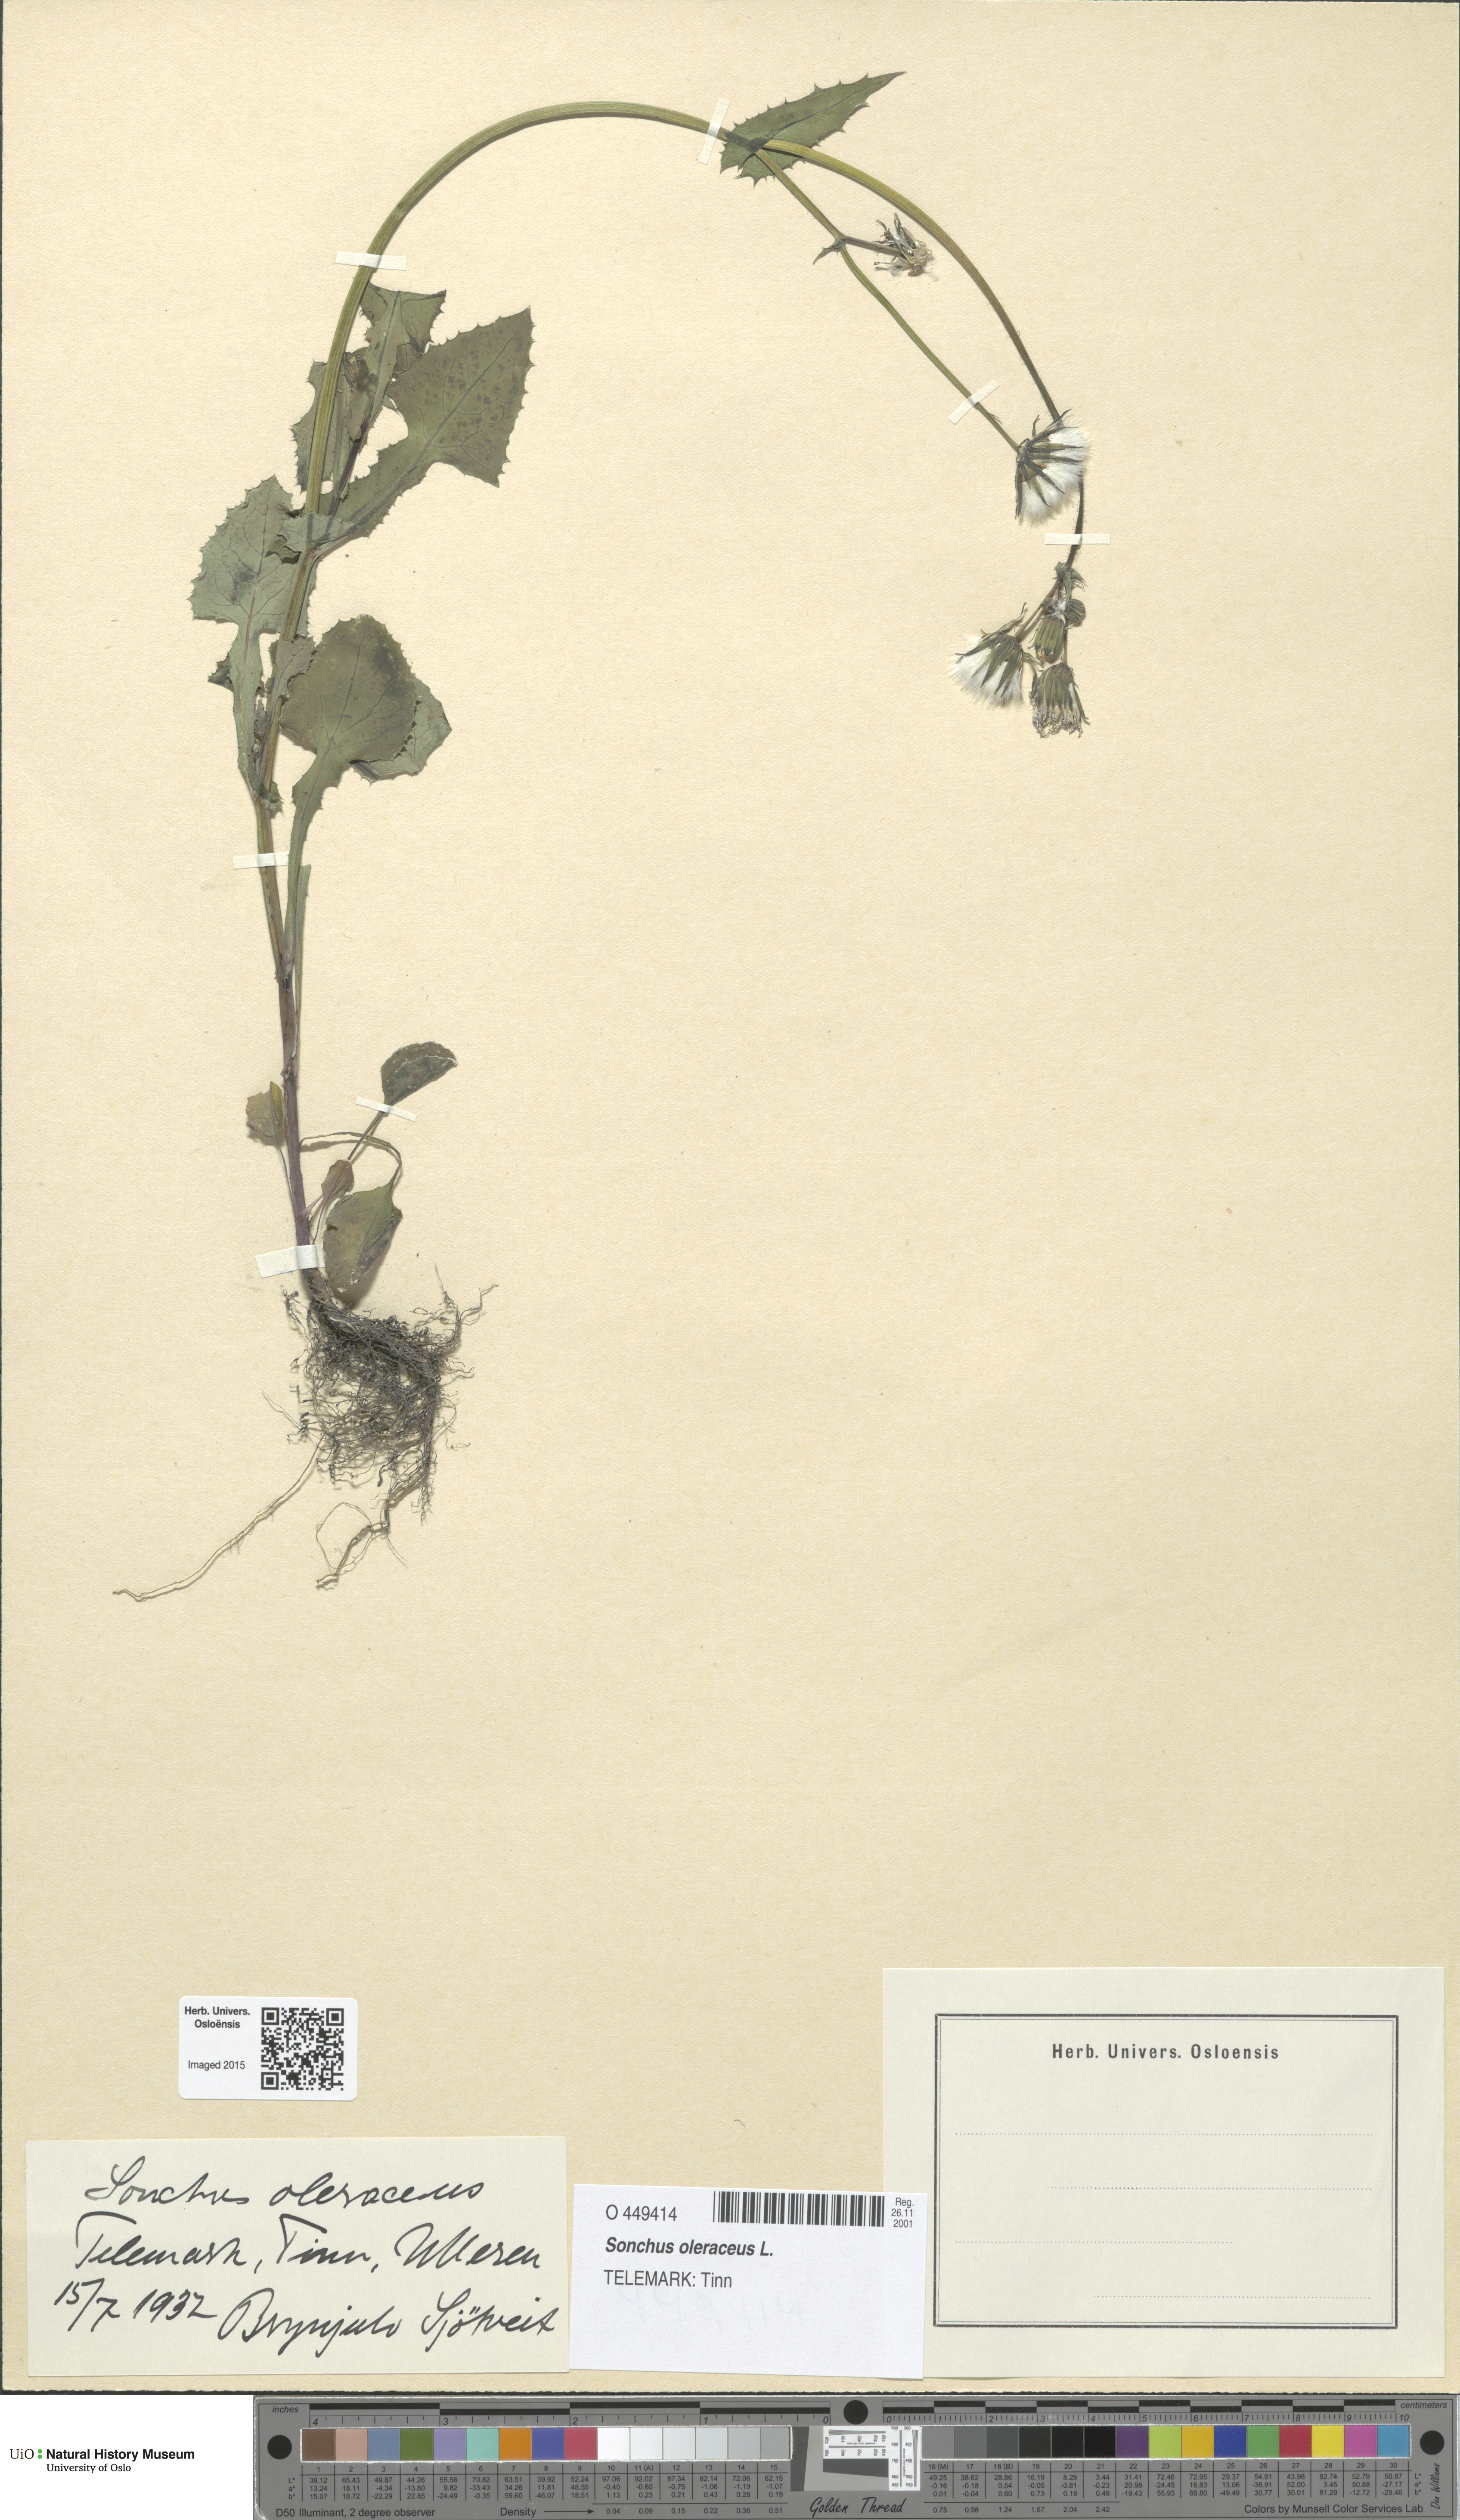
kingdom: Plantae
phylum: Tracheophyta
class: Magnoliopsida
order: Asterales
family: Asteraceae
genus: Sonchus
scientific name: Sonchus oleraceus
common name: Common sowthistle
